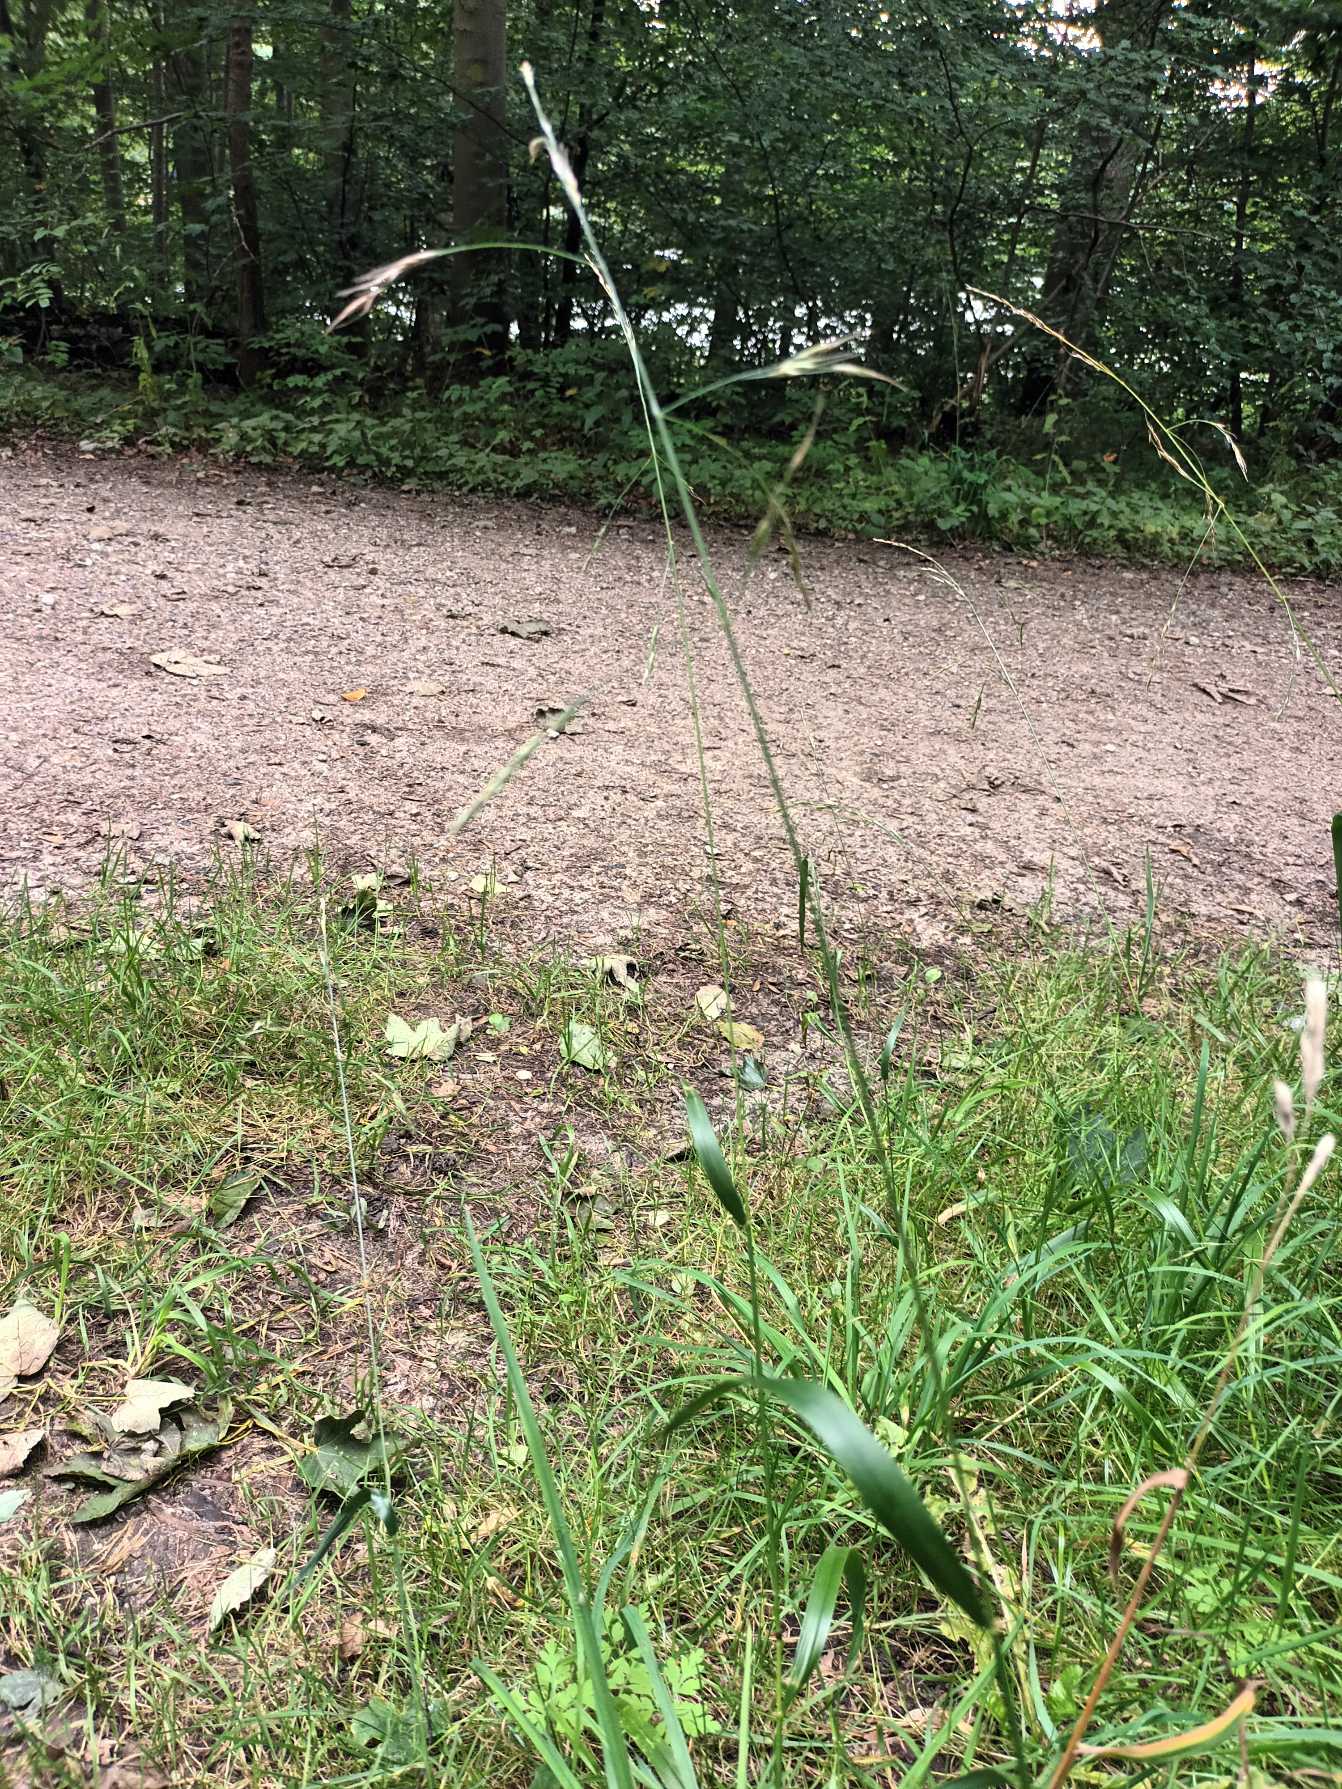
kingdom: Plantae
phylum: Tracheophyta
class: Liliopsida
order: Poales
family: Poaceae
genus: Lolium
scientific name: Lolium giganteum
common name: Kæmpe-svingel
